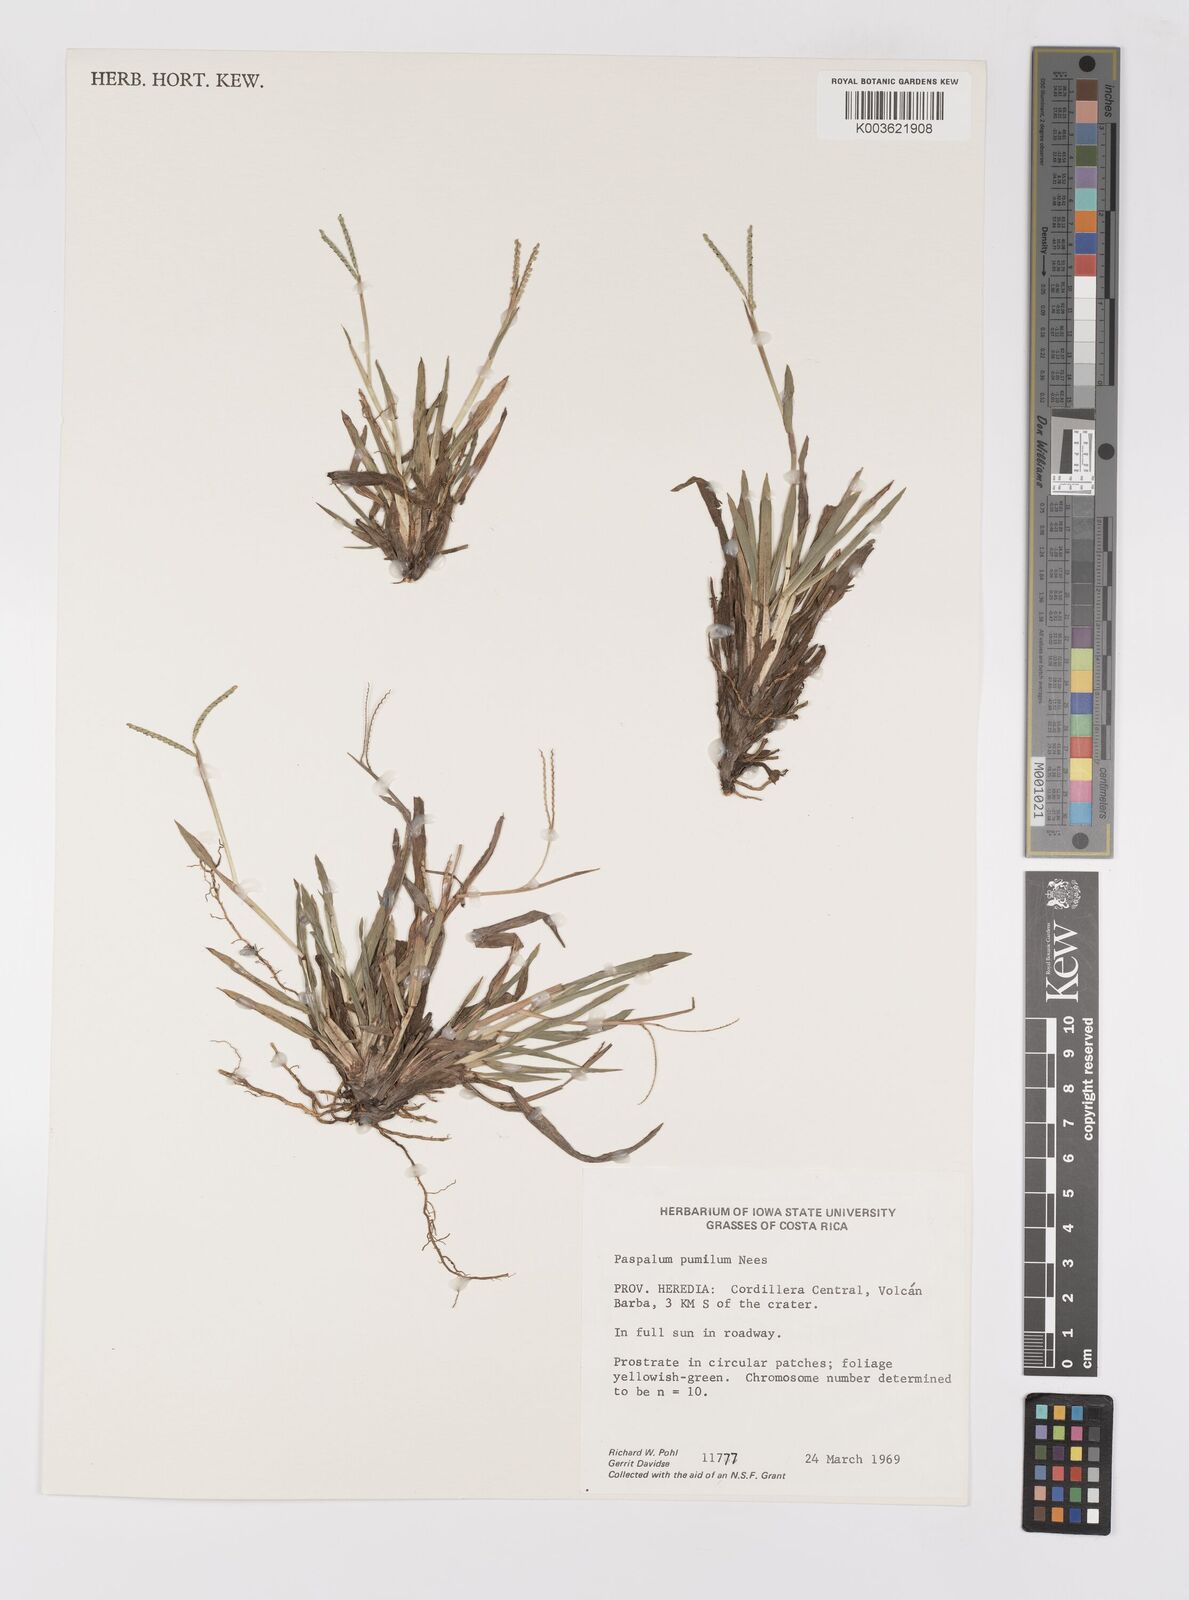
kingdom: Plantae
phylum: Tracheophyta
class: Liliopsida
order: Poales
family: Poaceae
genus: Paspalum
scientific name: Paspalum pumilum
